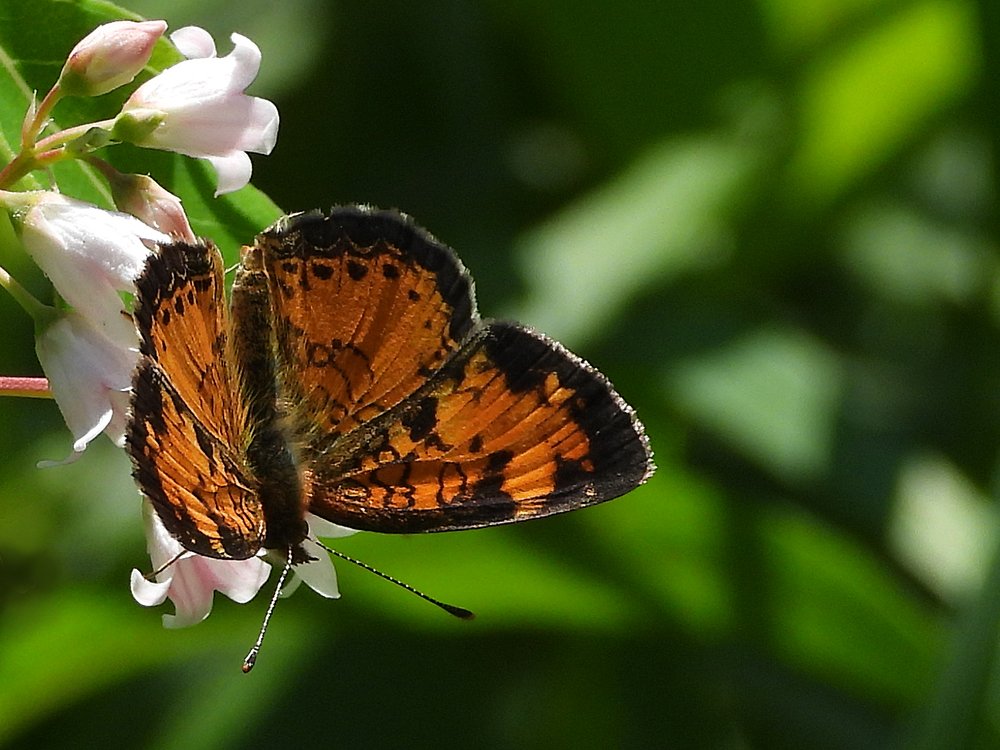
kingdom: Animalia
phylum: Arthropoda
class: Insecta
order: Lepidoptera
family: Nymphalidae
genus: Phyciodes
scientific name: Phyciodes
